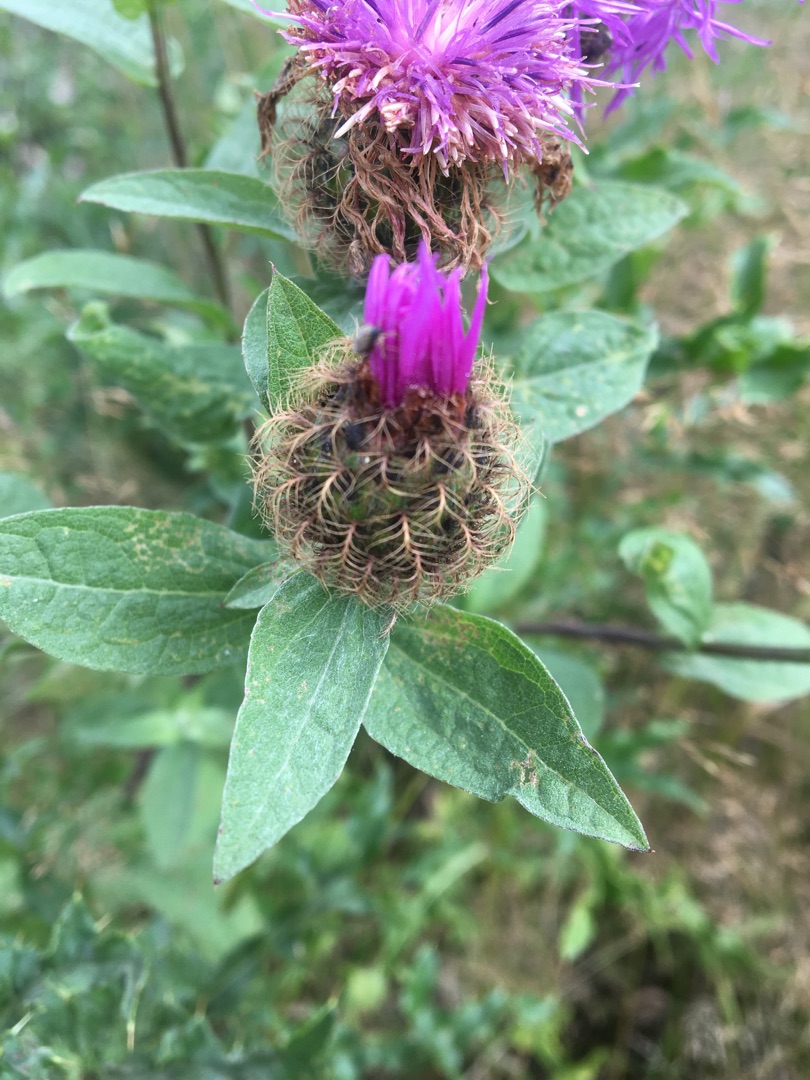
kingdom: Plantae
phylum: Tracheophyta
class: Magnoliopsida
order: Asterales
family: Asteraceae
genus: Centaurea
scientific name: Centaurea pseudophrygia
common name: Fjer-knopurt
